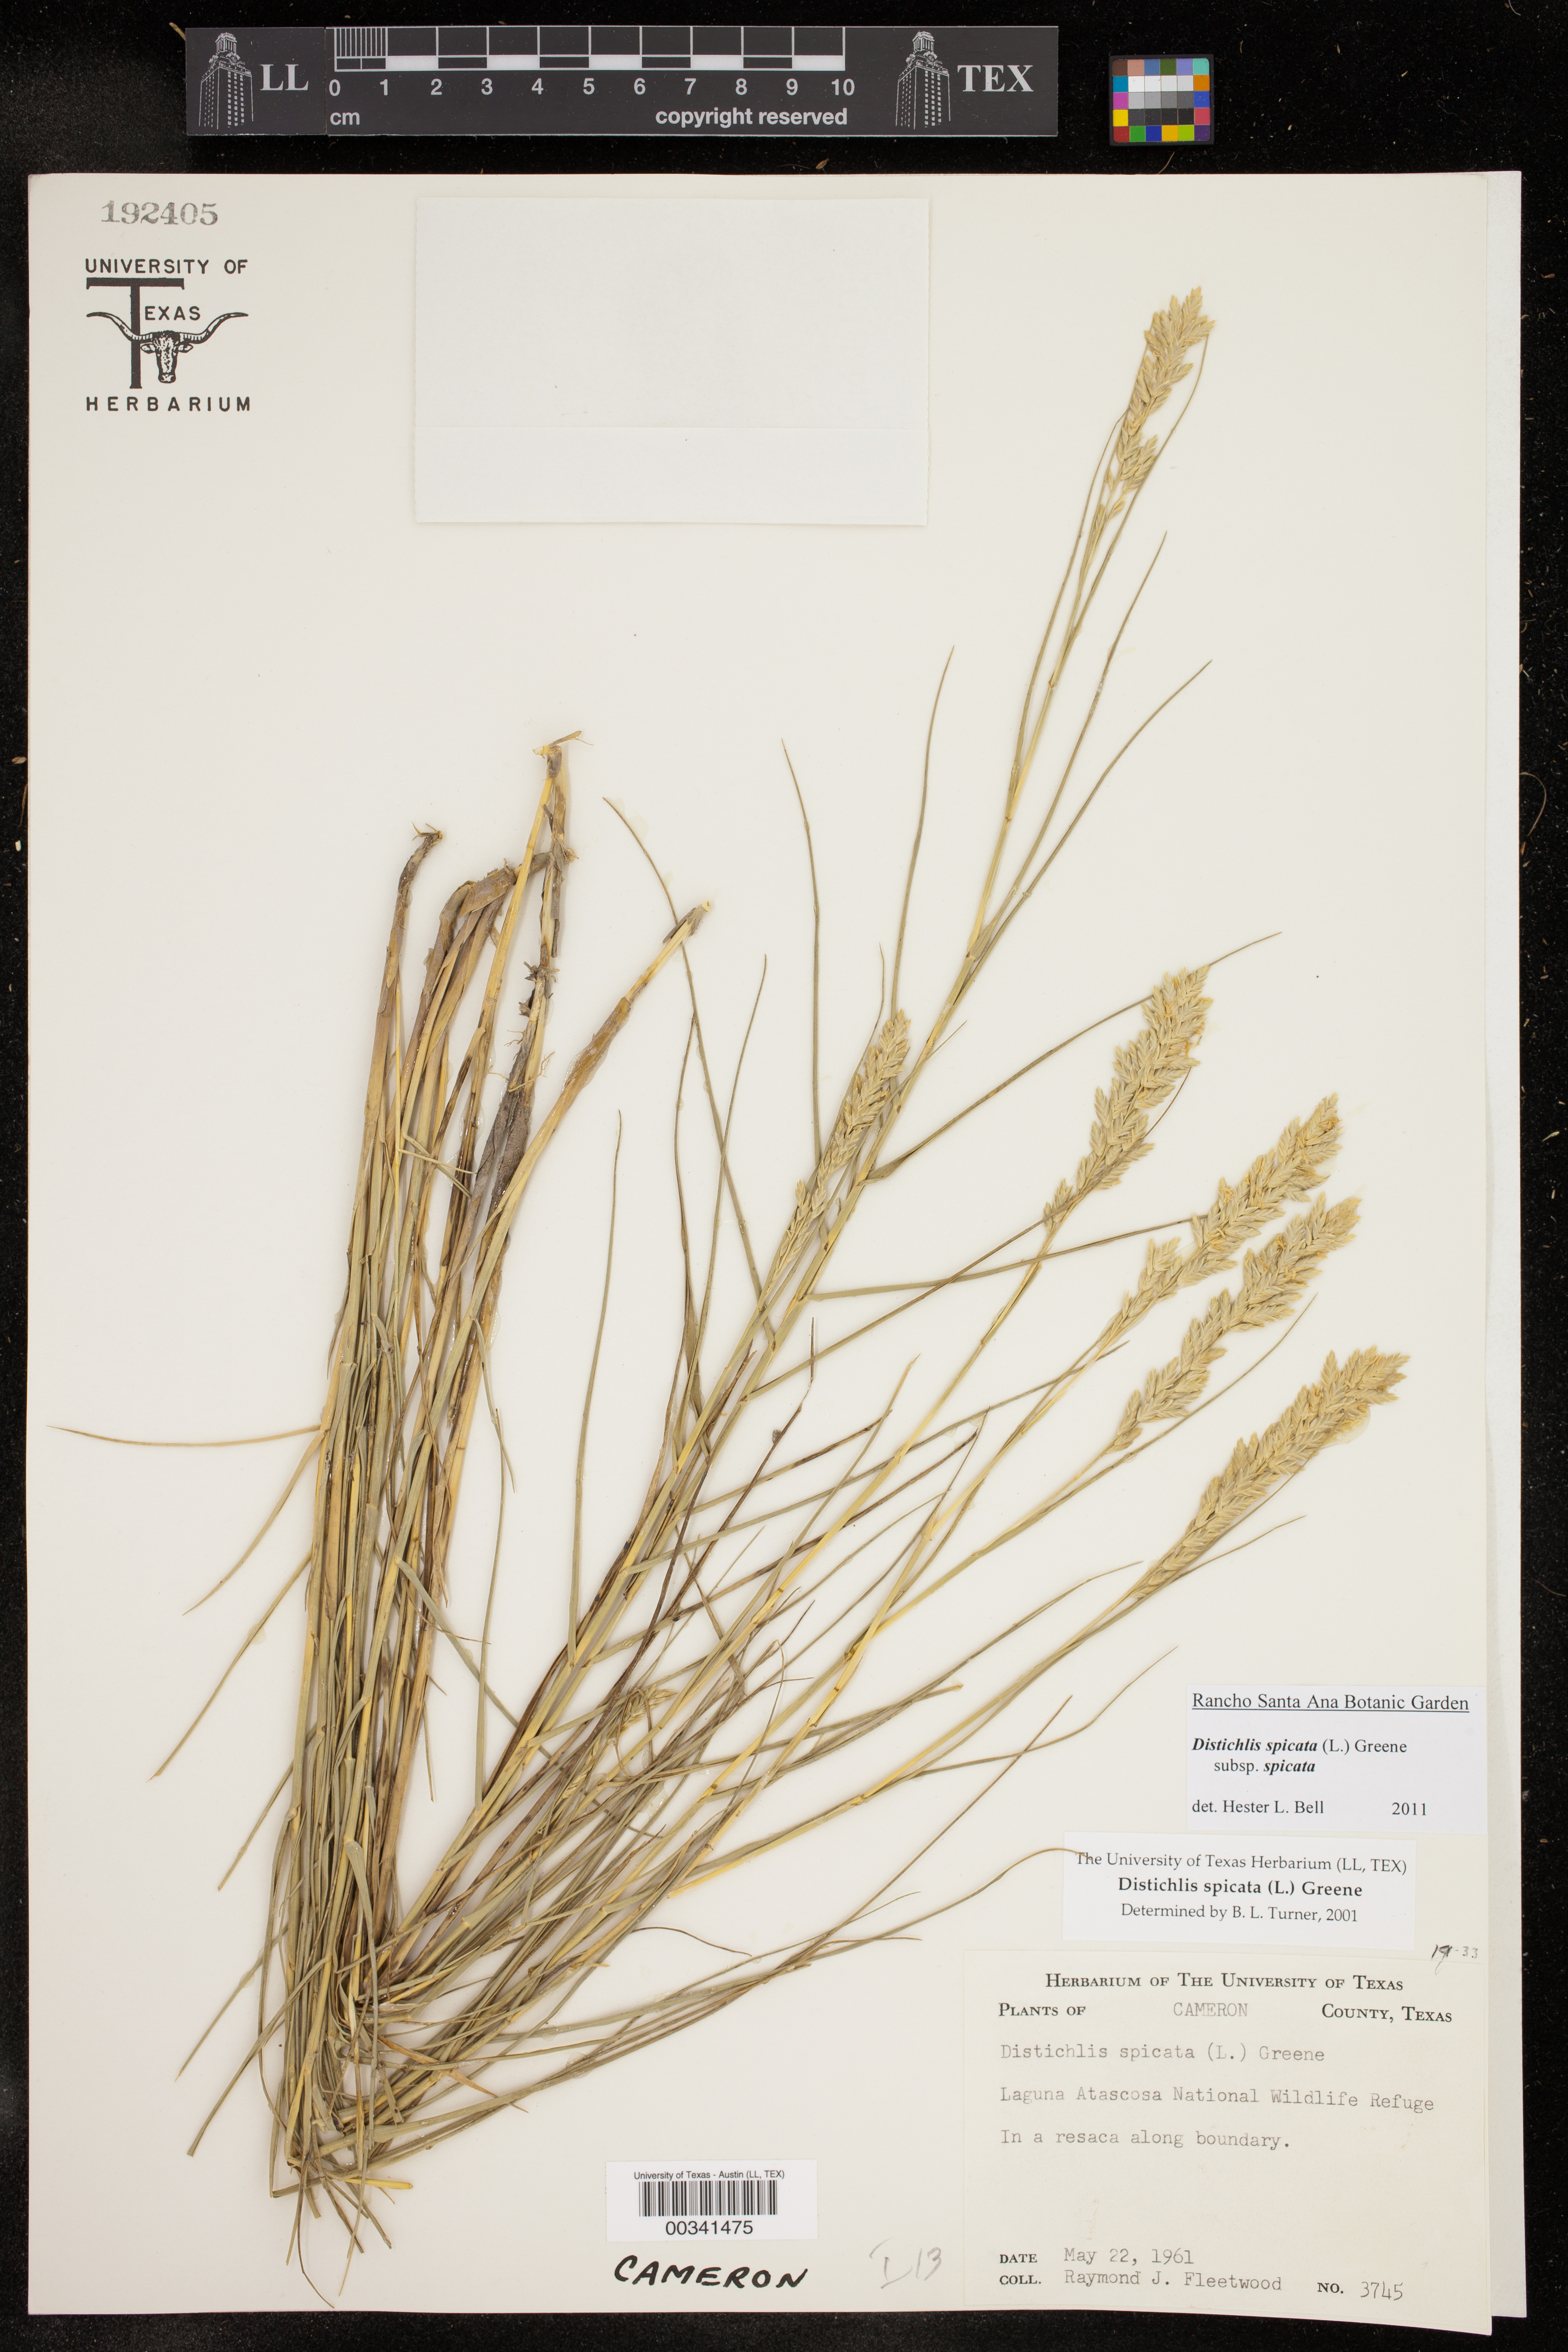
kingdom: Plantae
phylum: Tracheophyta
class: Liliopsida
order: Poales
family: Poaceae
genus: Distichlis
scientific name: Distichlis spicata
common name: Saltgrass
